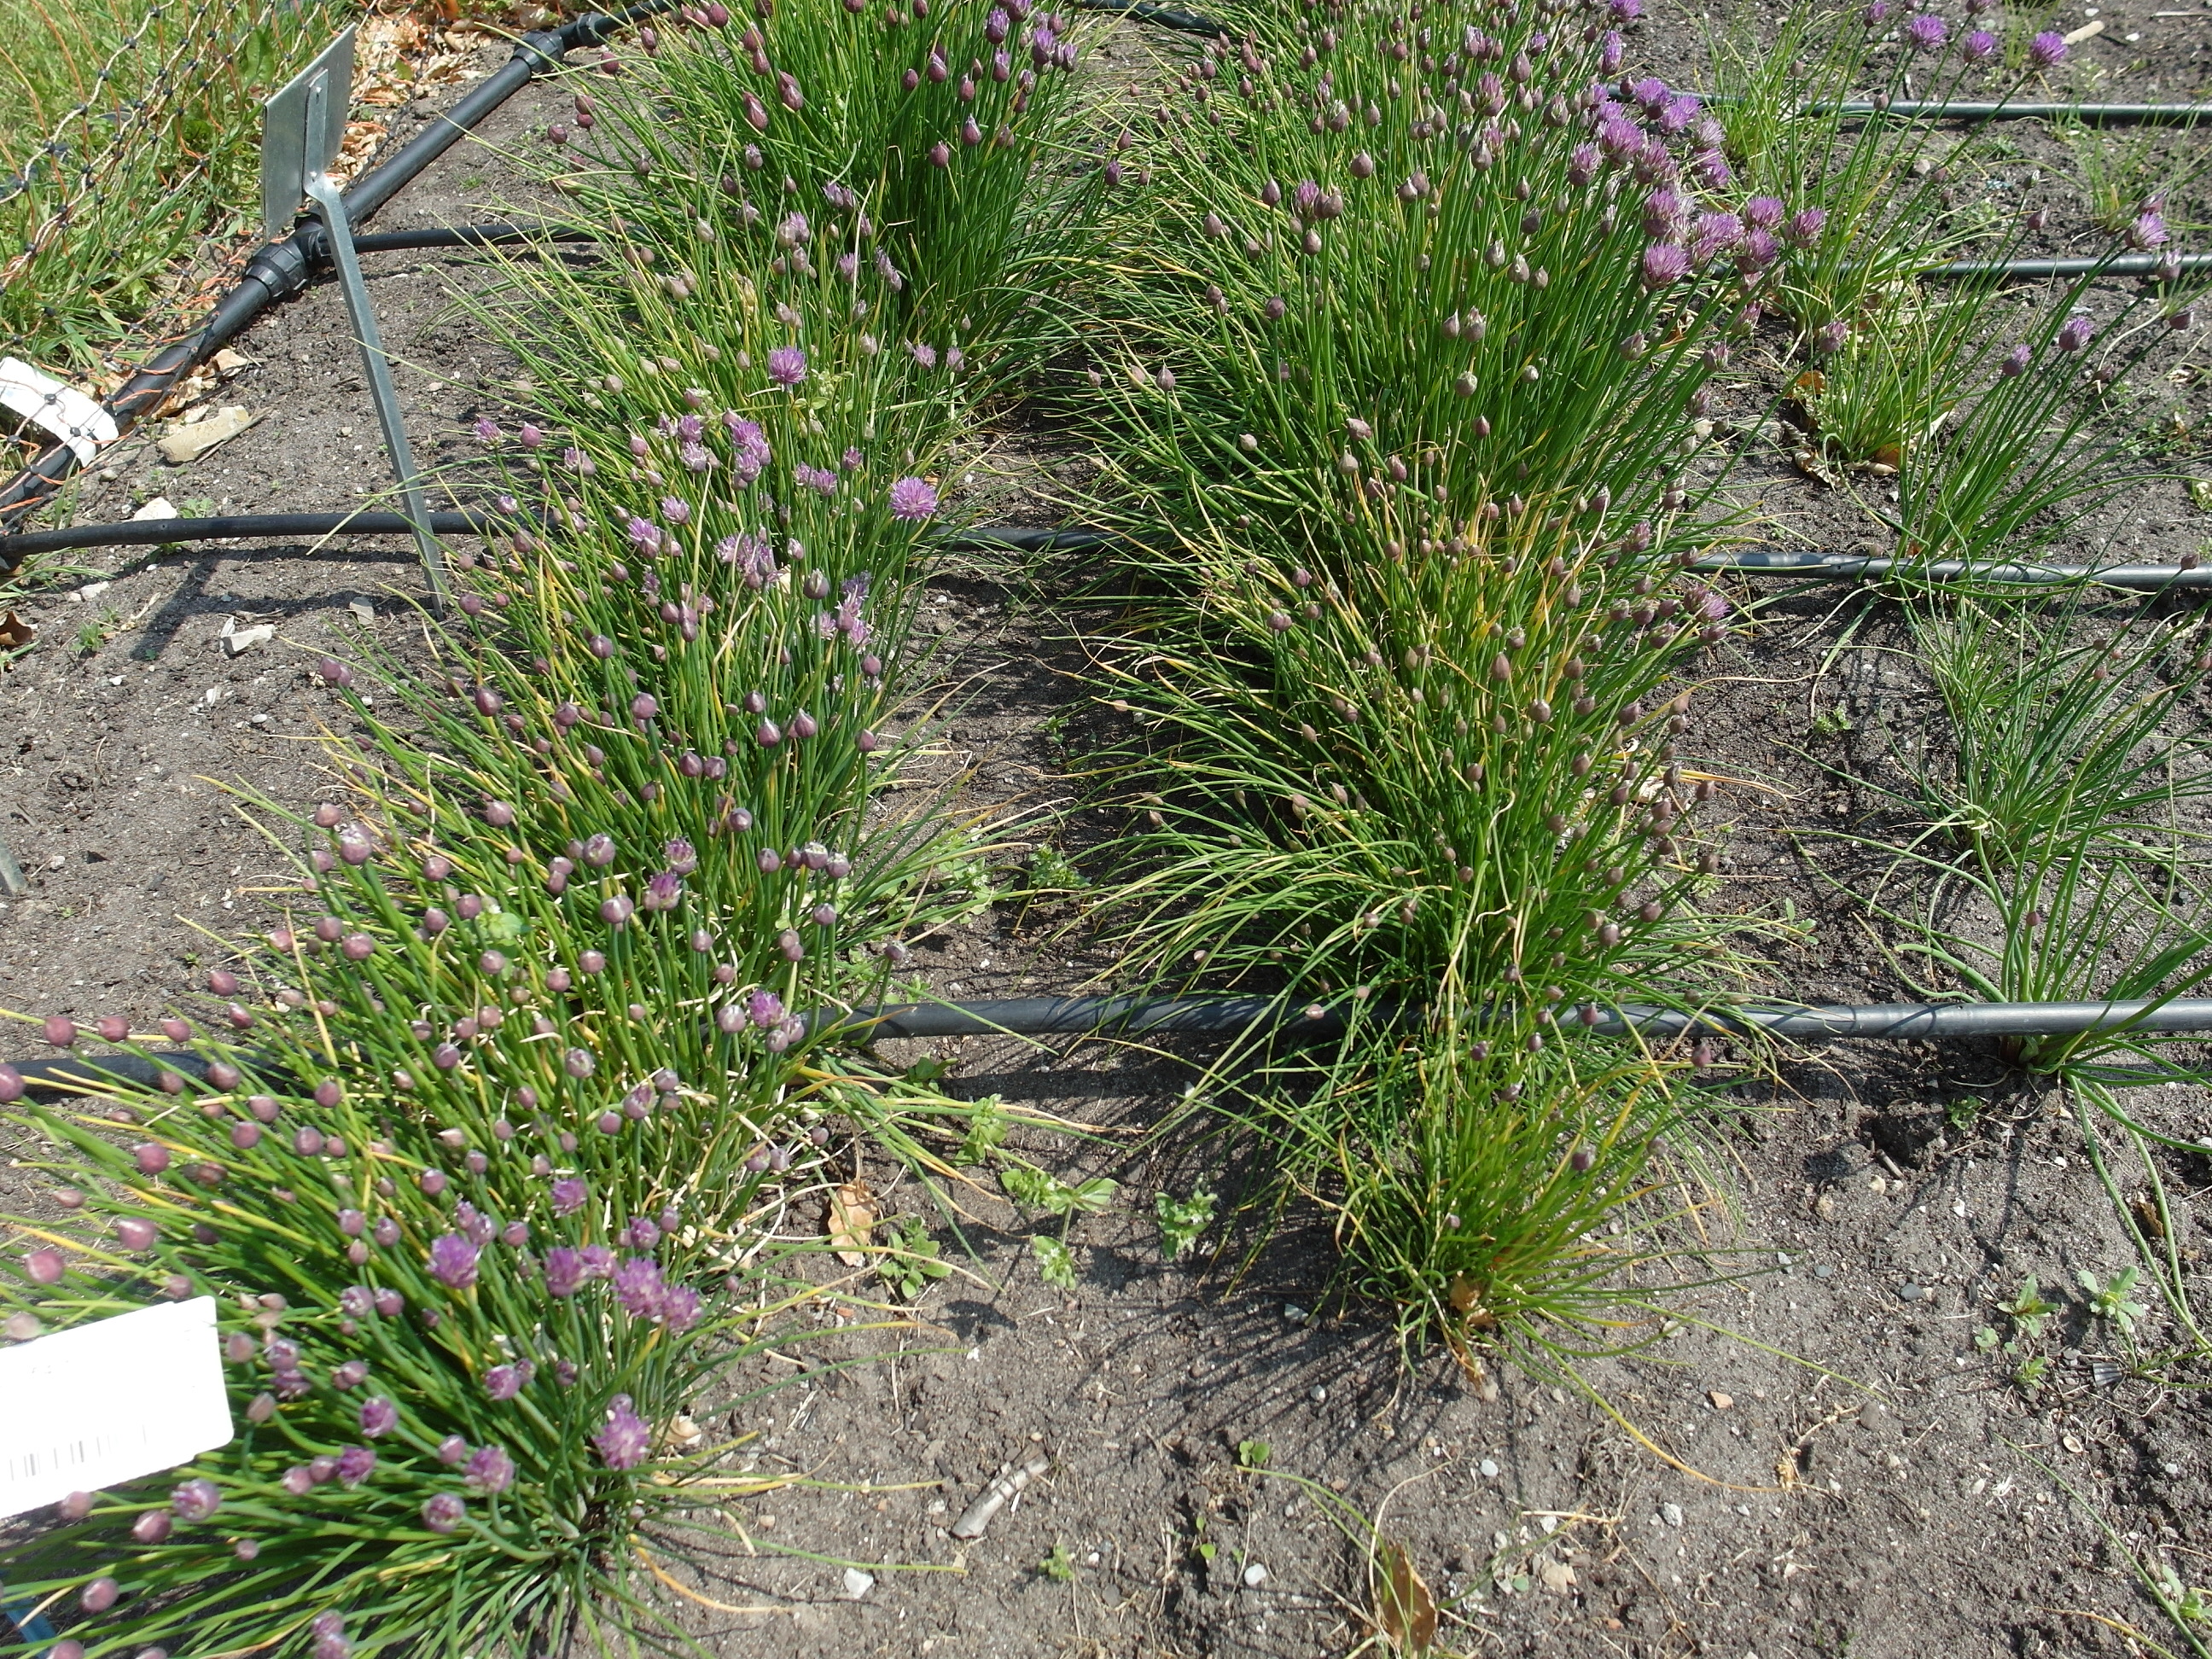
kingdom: Plantae
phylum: Tracheophyta
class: Liliopsida
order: Asparagales
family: Amaryllidaceae
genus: Allium
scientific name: Allium schoenoprasum
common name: Chives
